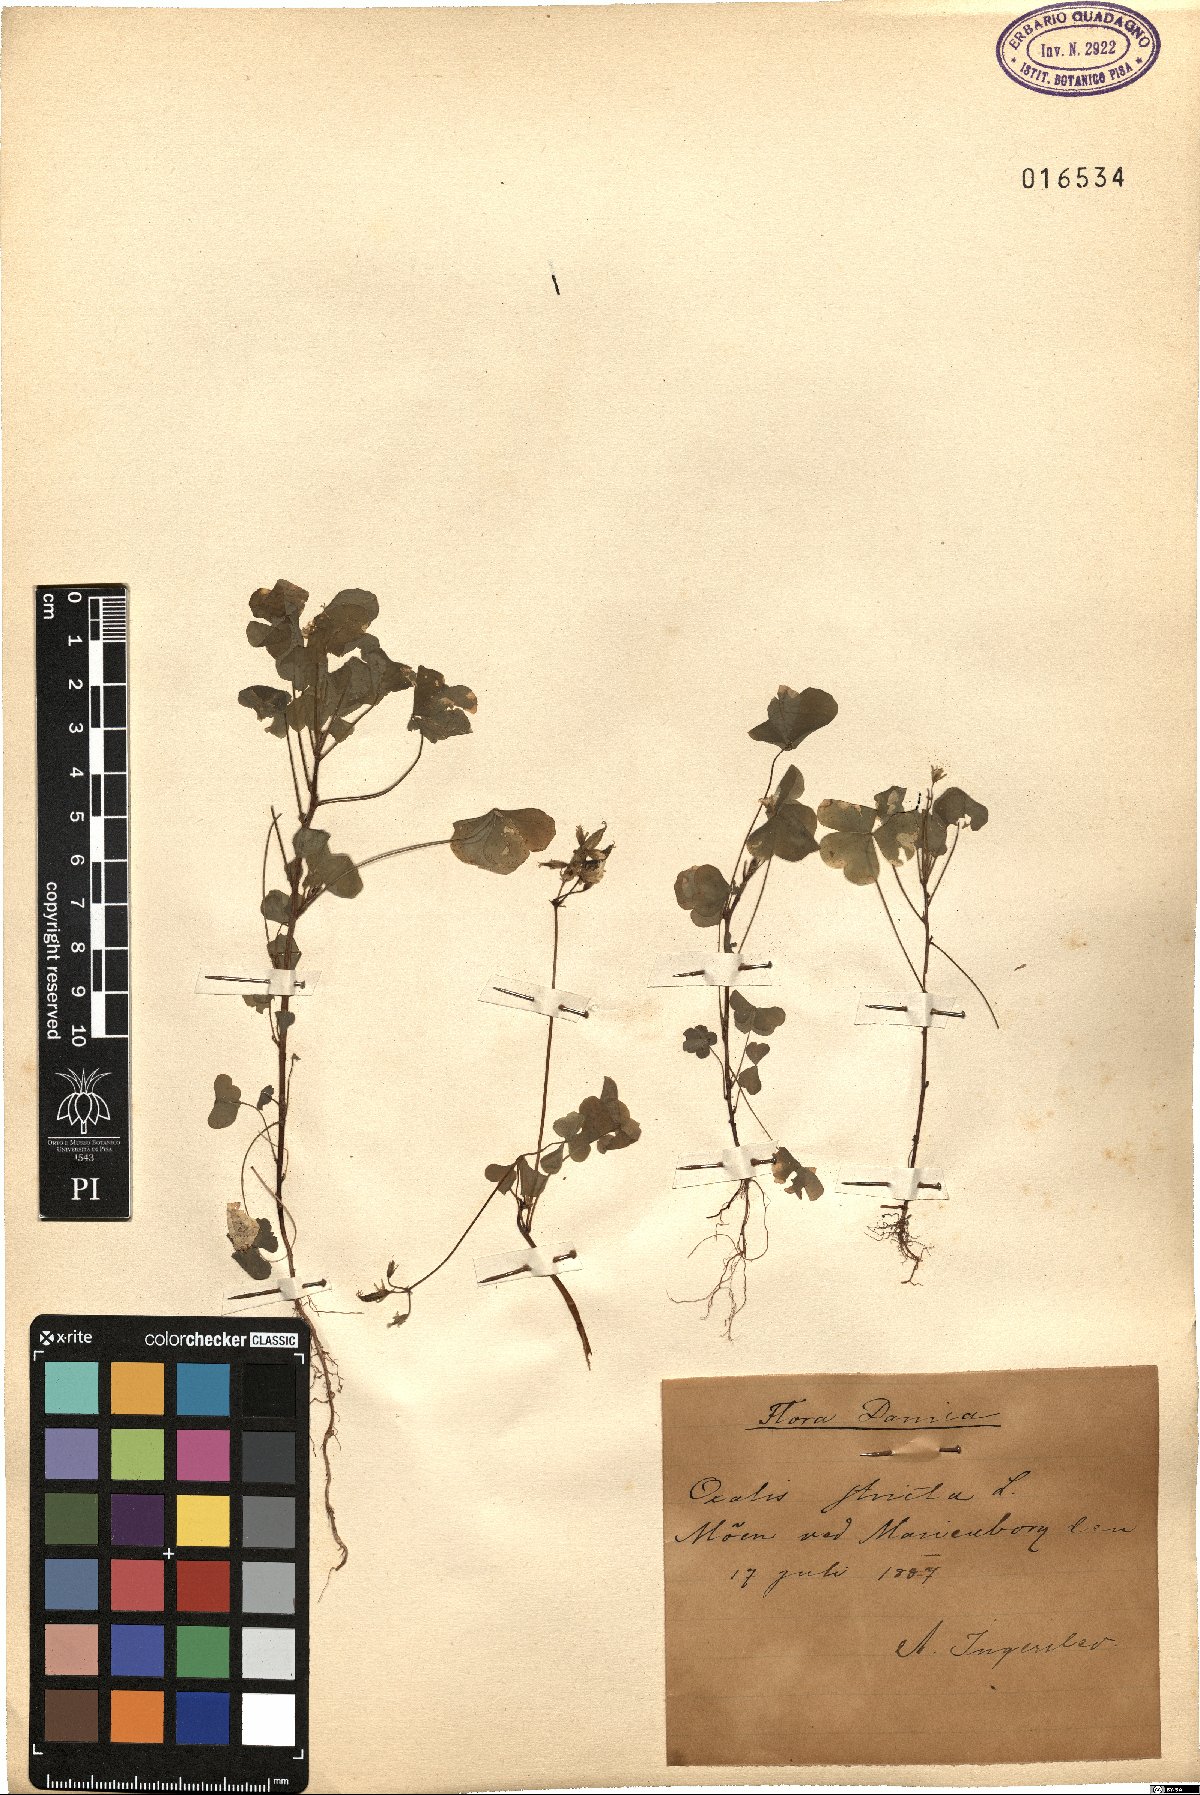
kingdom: Plantae
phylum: Tracheophyta
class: Magnoliopsida
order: Oxalidales
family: Oxalidaceae
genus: Oxalis
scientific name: Oxalis stricta
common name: Upright yellow-sorrel
